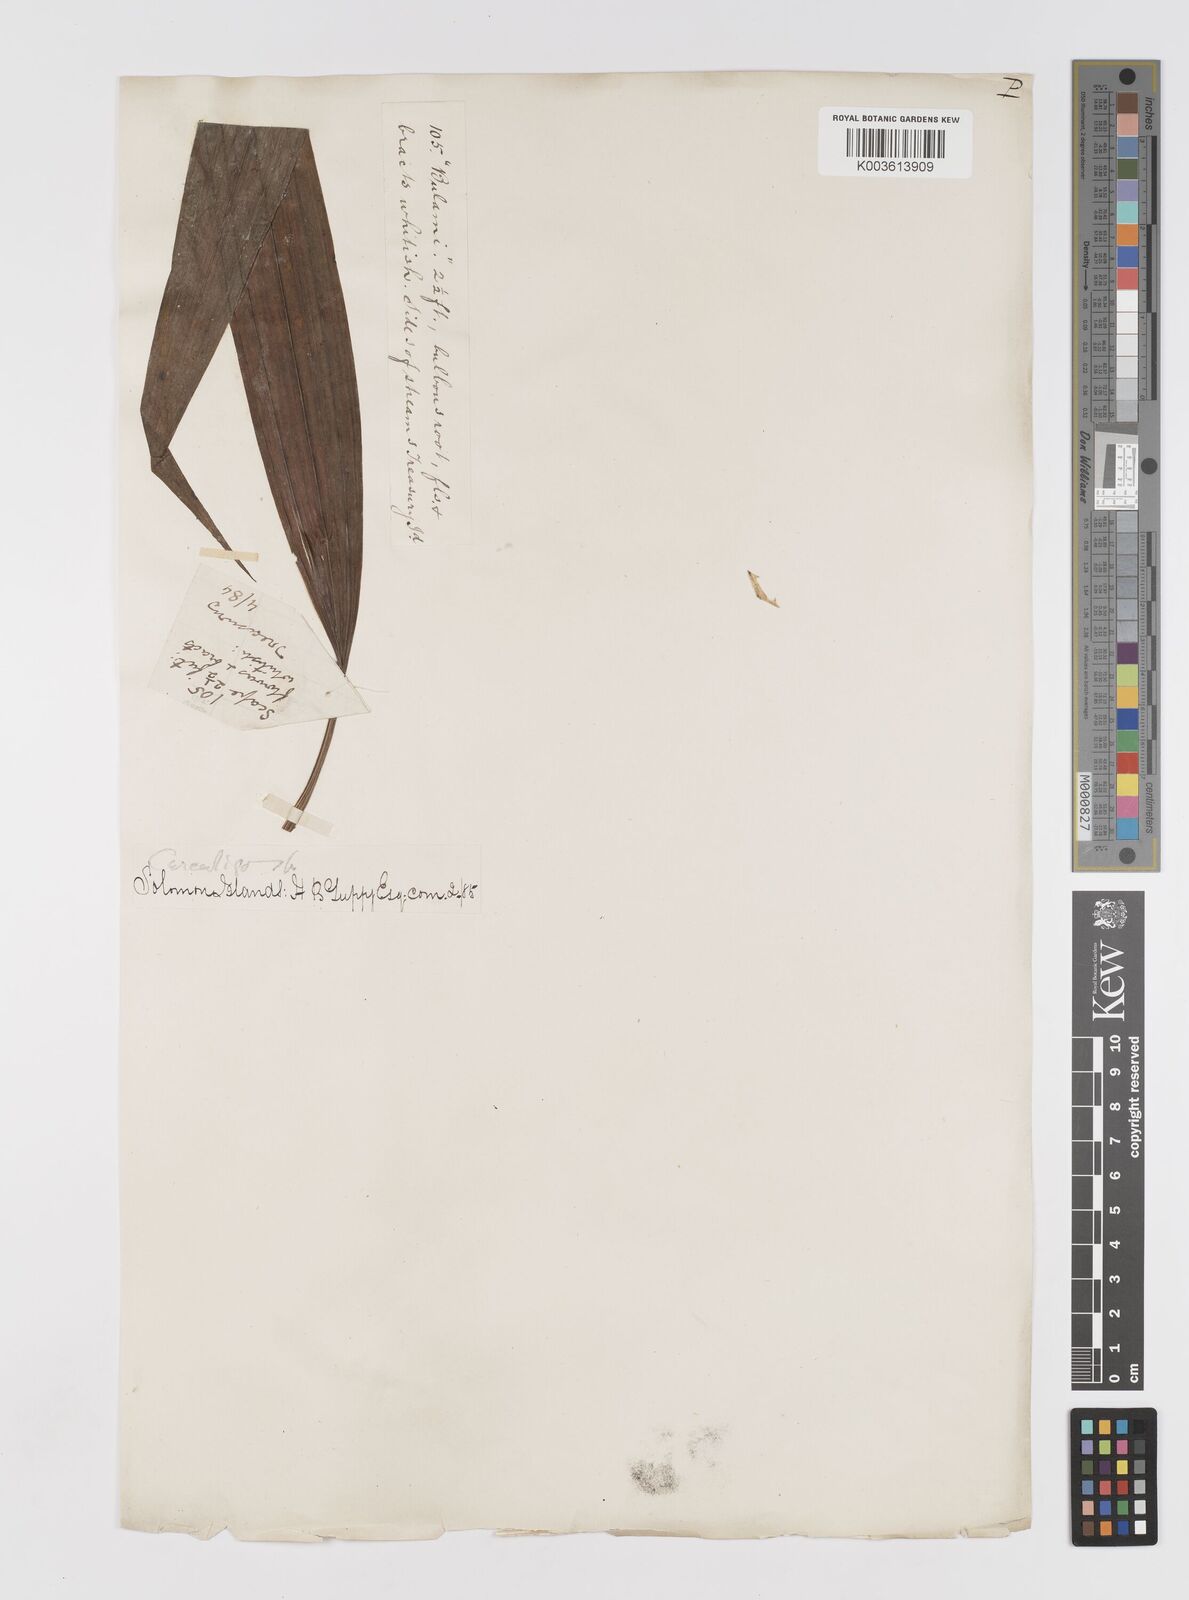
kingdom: Plantae
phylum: Tracheophyta
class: Liliopsida
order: Asparagales
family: Hypoxidaceae
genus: Curculigo
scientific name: Curculigo
